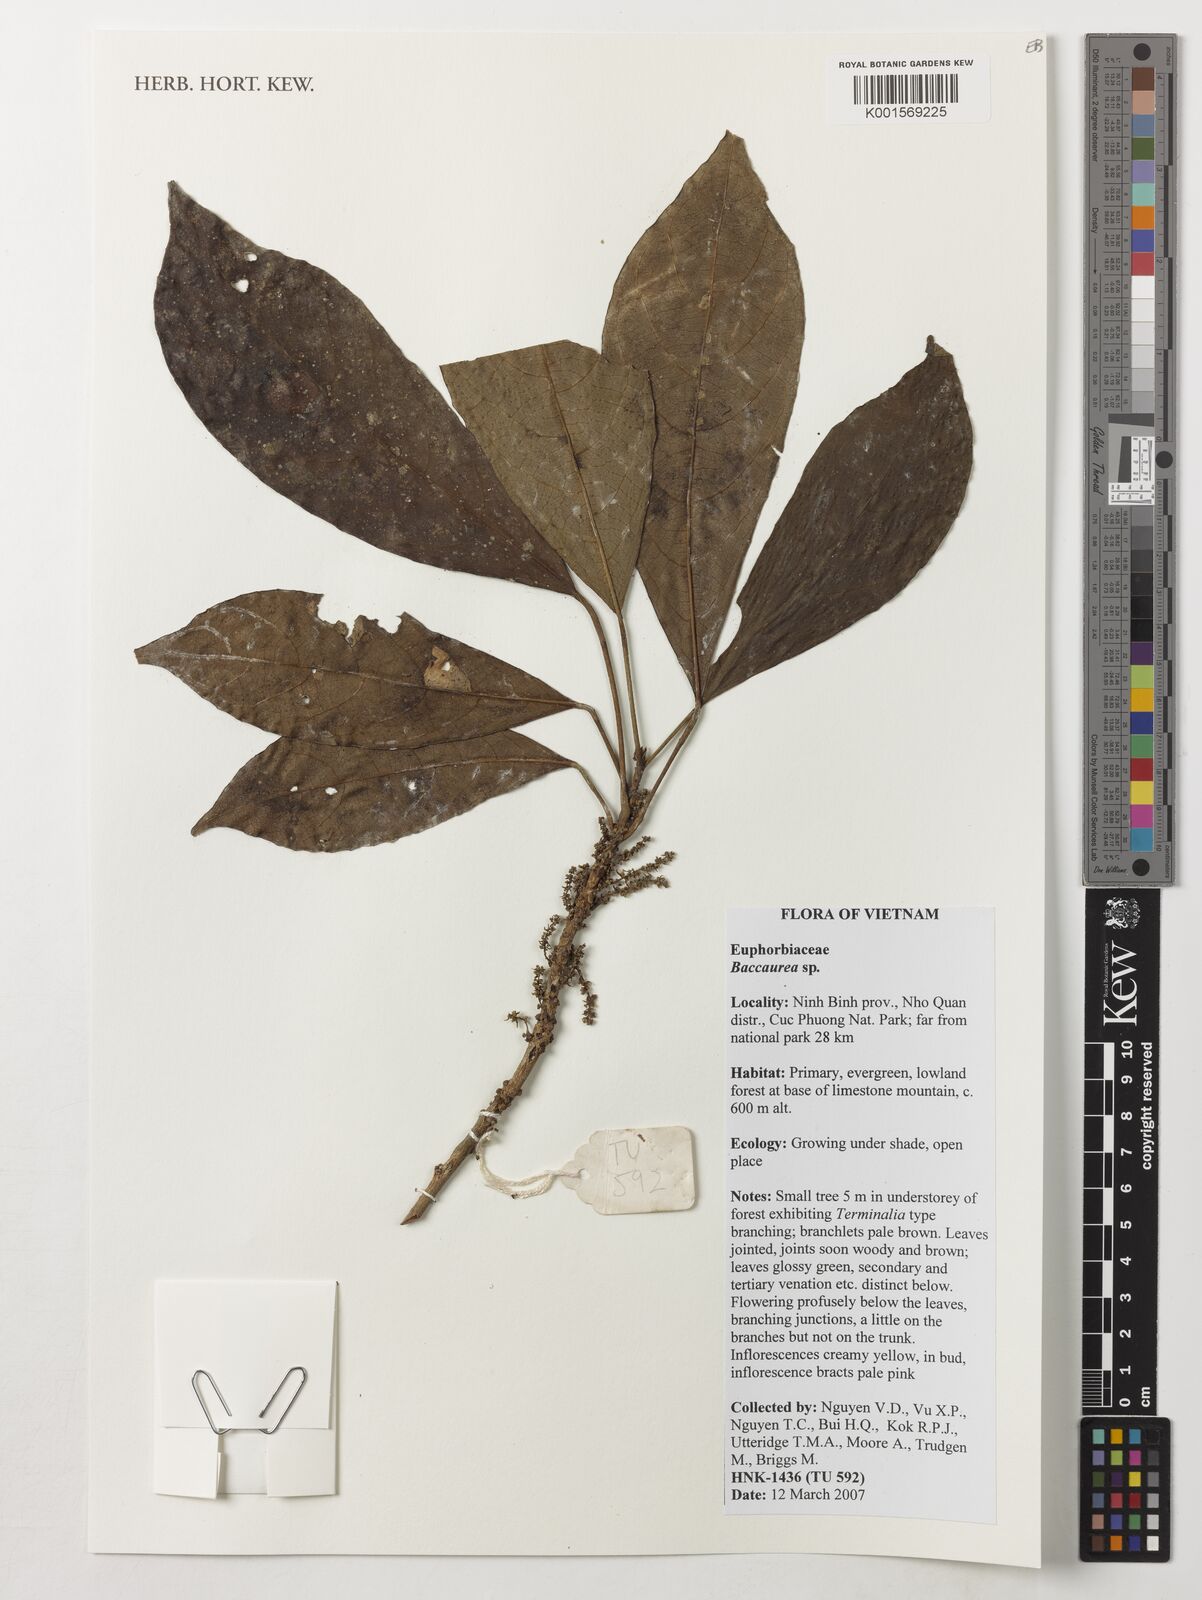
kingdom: Plantae
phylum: Tracheophyta
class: Magnoliopsida
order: Malpighiales
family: Phyllanthaceae
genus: Baccaurea
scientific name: Baccaurea
